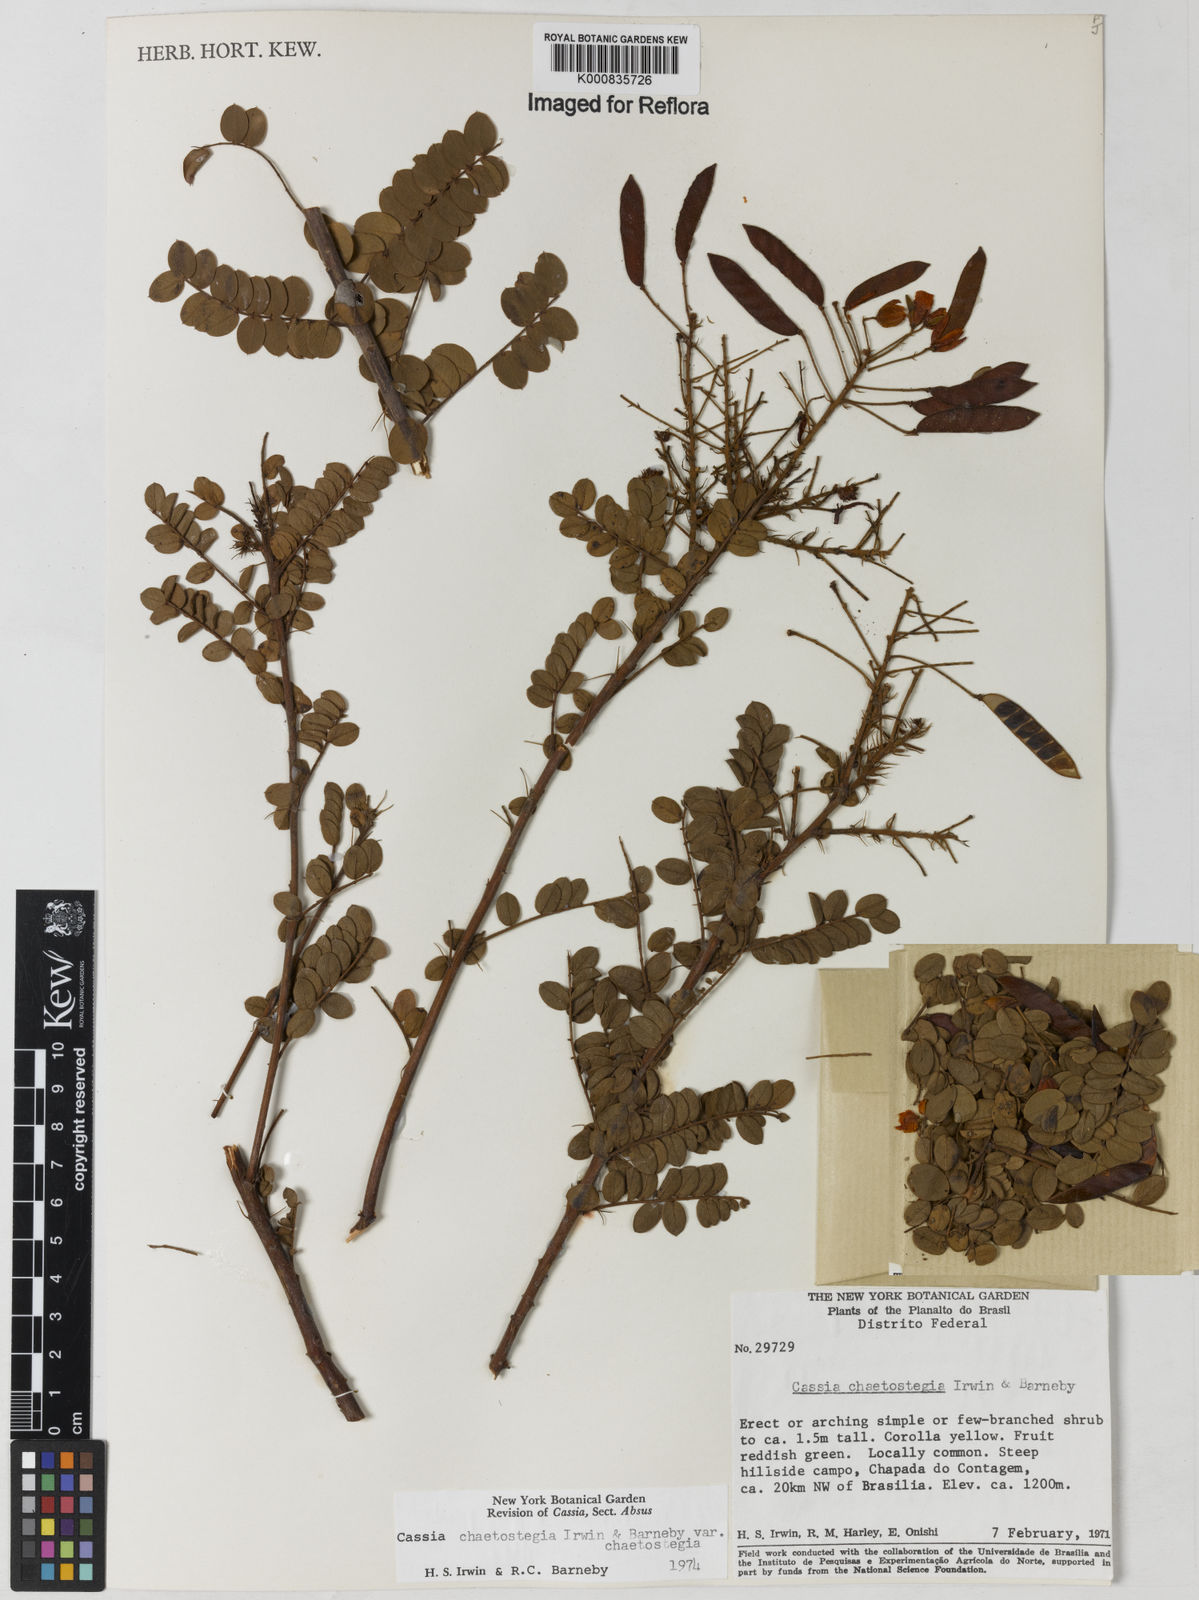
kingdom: Plantae
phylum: Tracheophyta
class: Magnoliopsida
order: Fabales
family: Fabaceae
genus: Chamaecrista
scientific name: Chamaecrista chaetostegia
